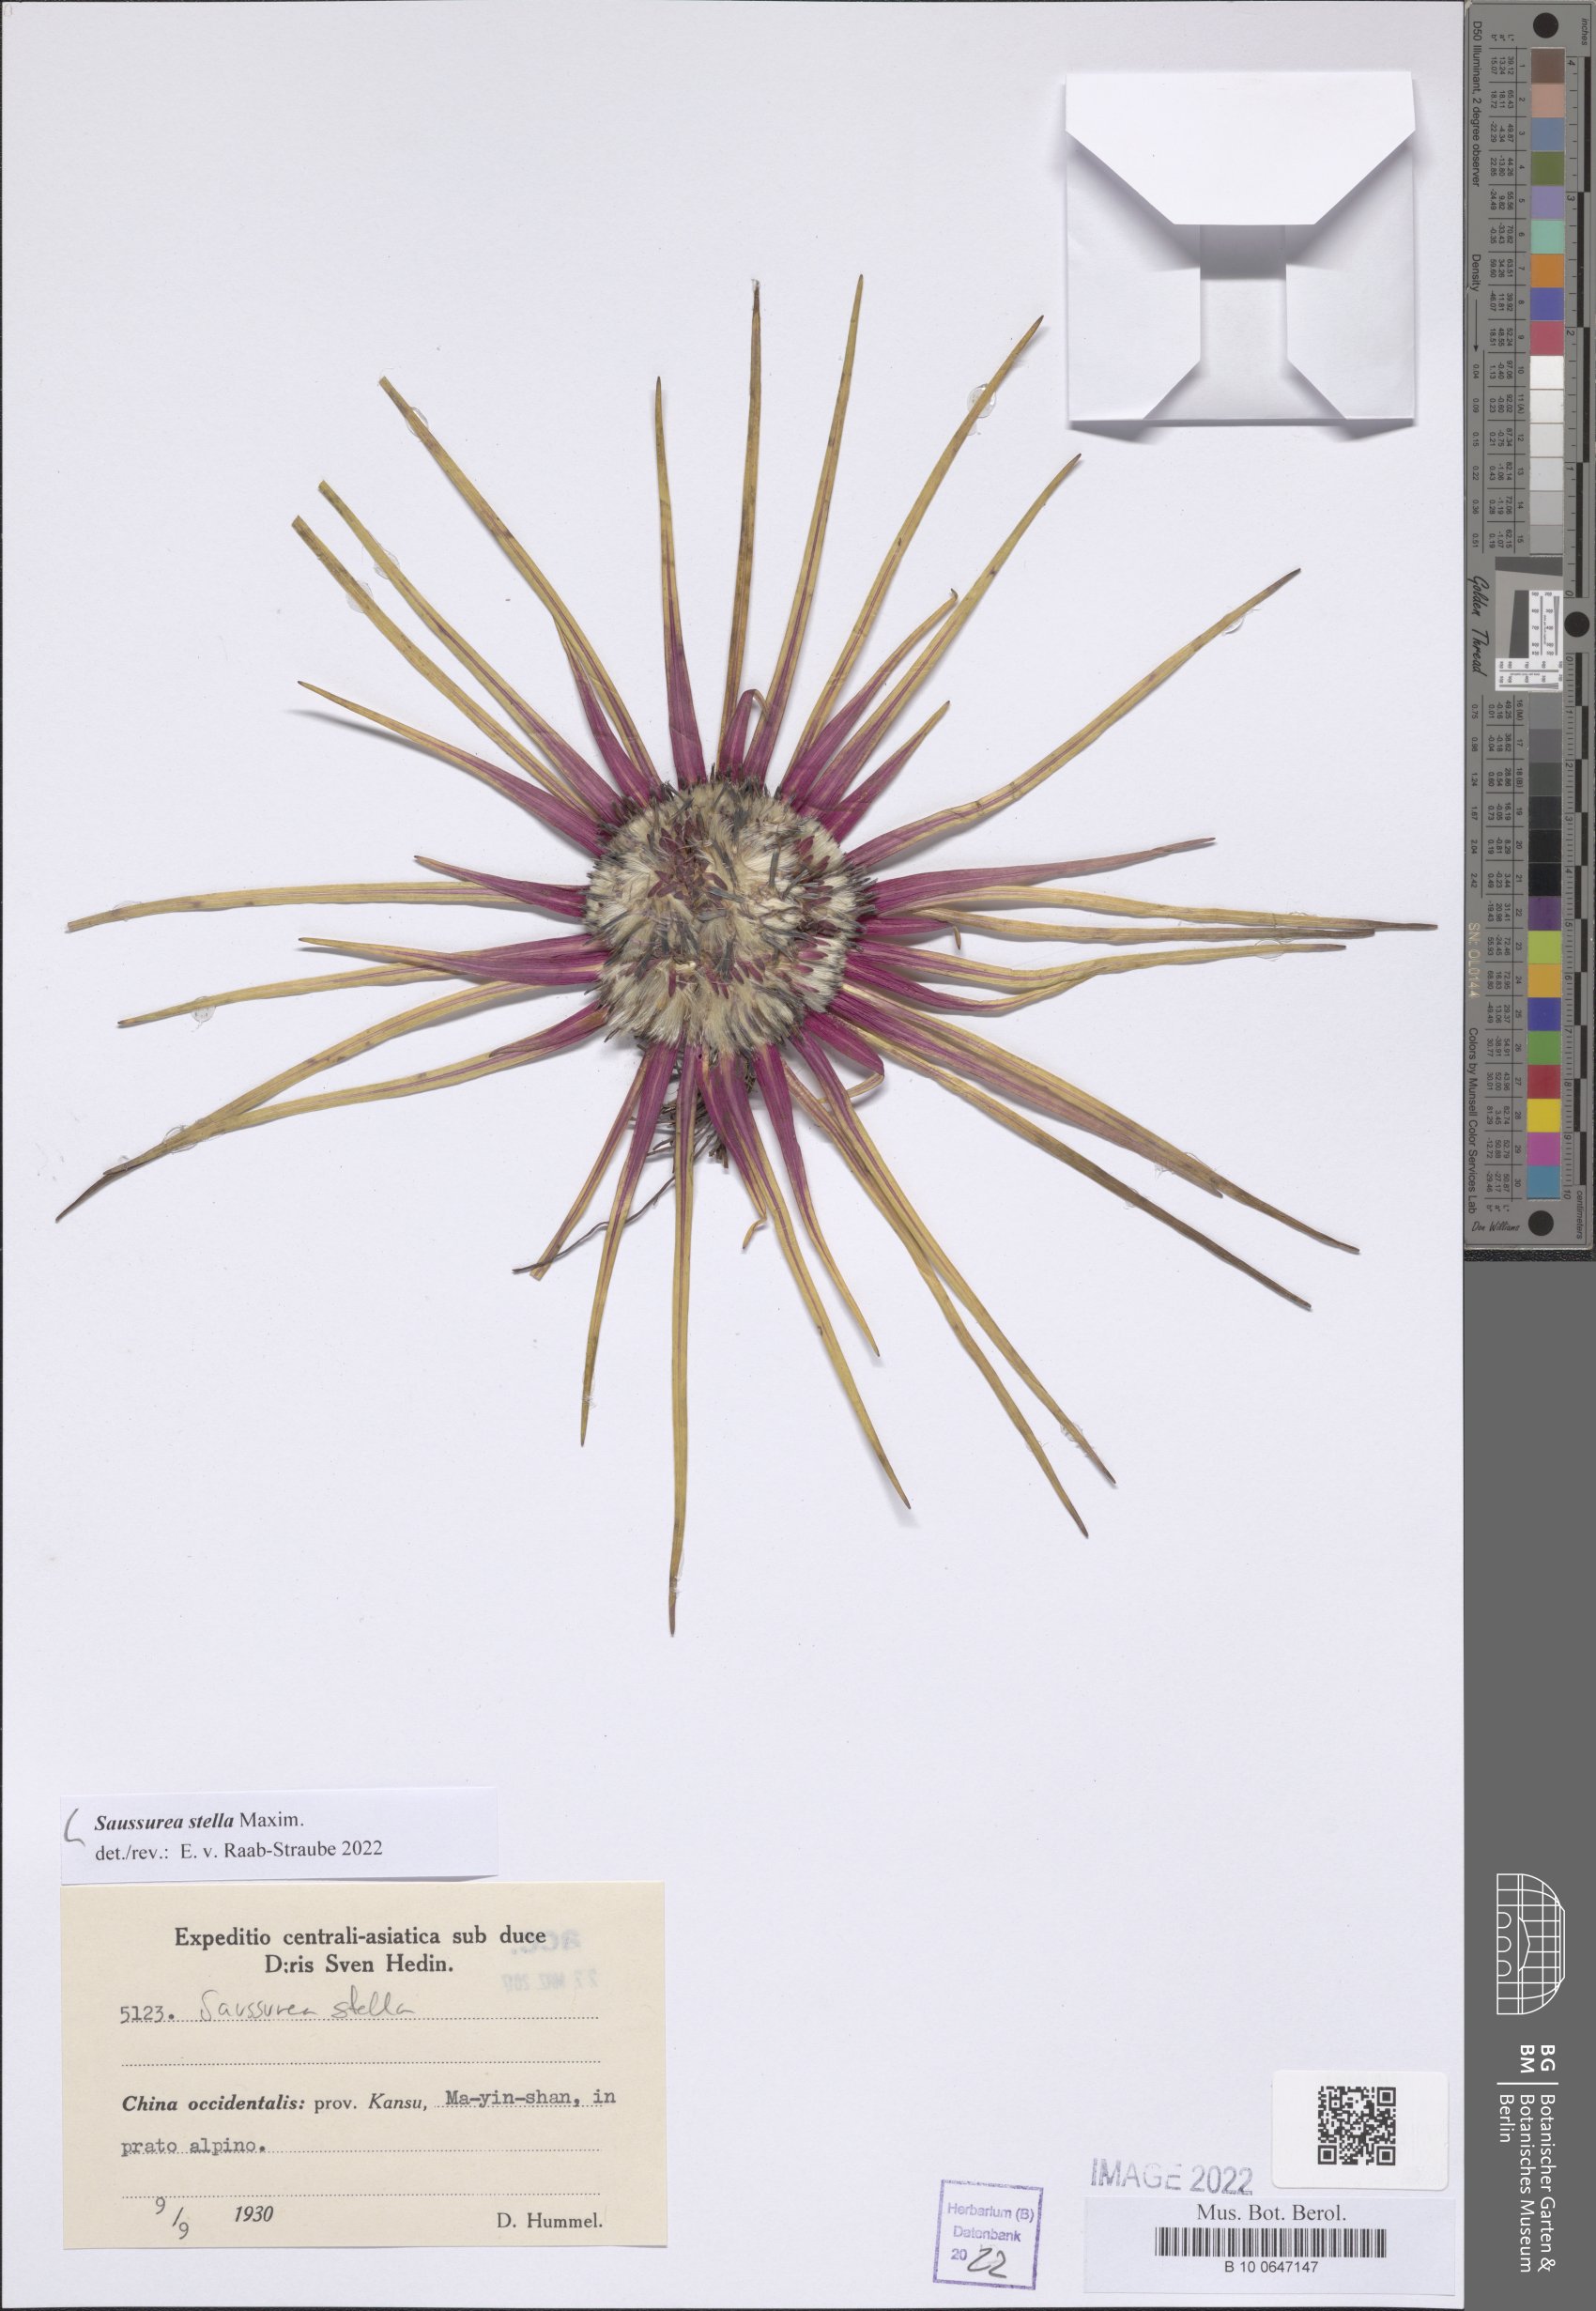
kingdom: Plantae
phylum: Tracheophyta
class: Magnoliopsida
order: Asterales
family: Asteraceae
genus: Saussurea
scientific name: Saussurea stella
